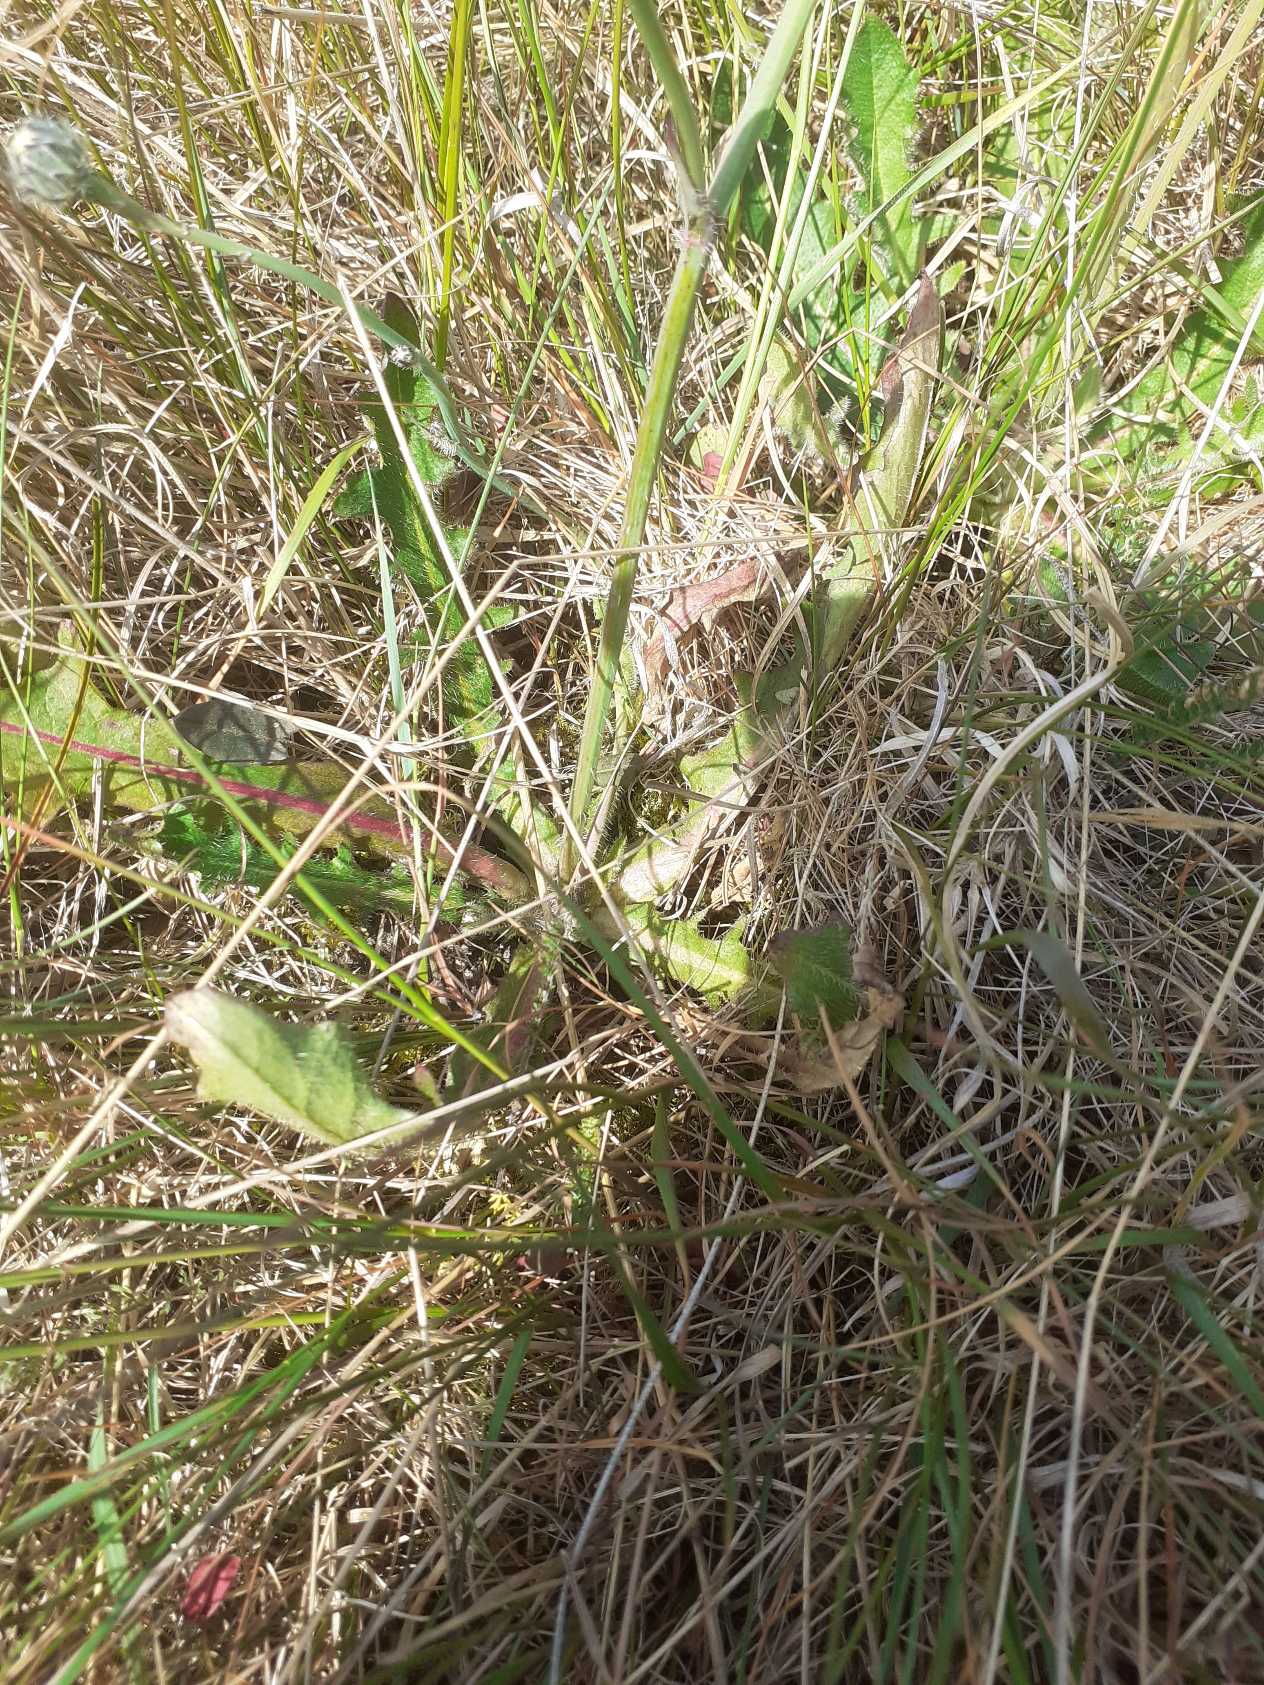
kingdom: Plantae
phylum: Tracheophyta
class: Magnoliopsida
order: Asterales
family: Asteraceae
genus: Hypochaeris
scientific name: Hypochaeris radicata
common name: Almindelig kongepen
